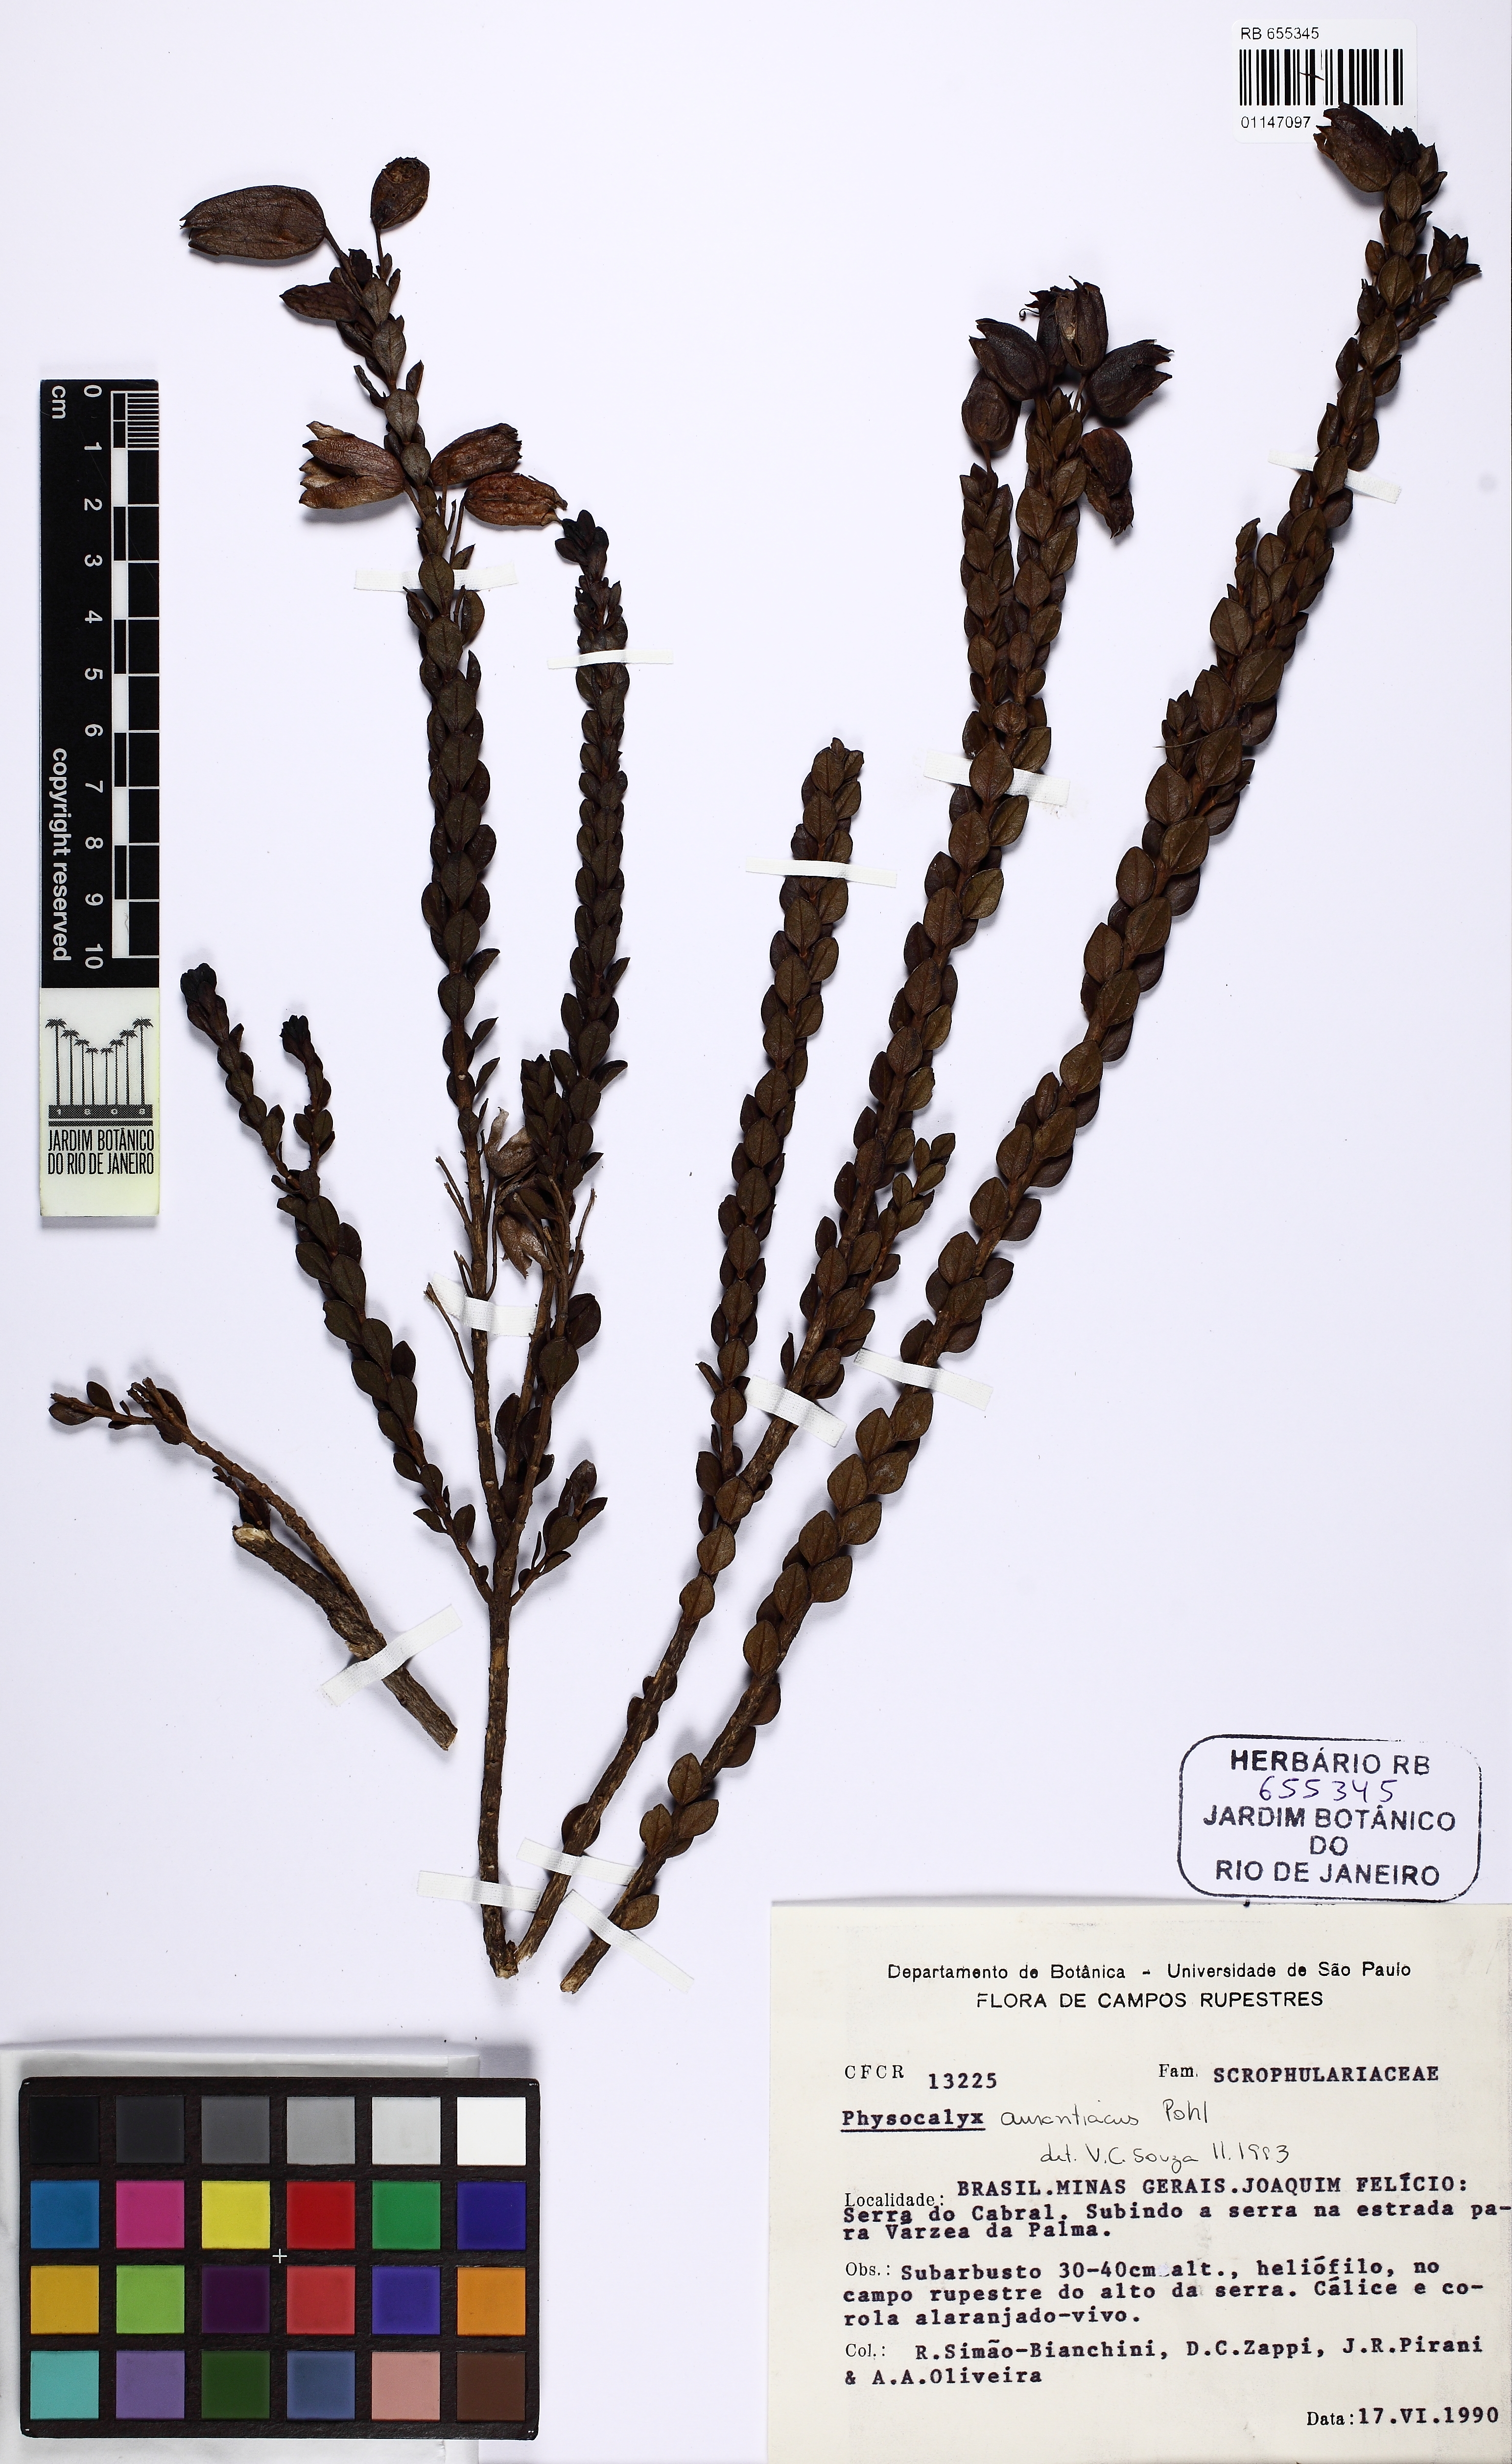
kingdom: Plantae
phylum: Tracheophyta
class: Magnoliopsida
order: Lamiales
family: Orobanchaceae
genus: Physocalyx
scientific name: Physocalyx aurantiacus
